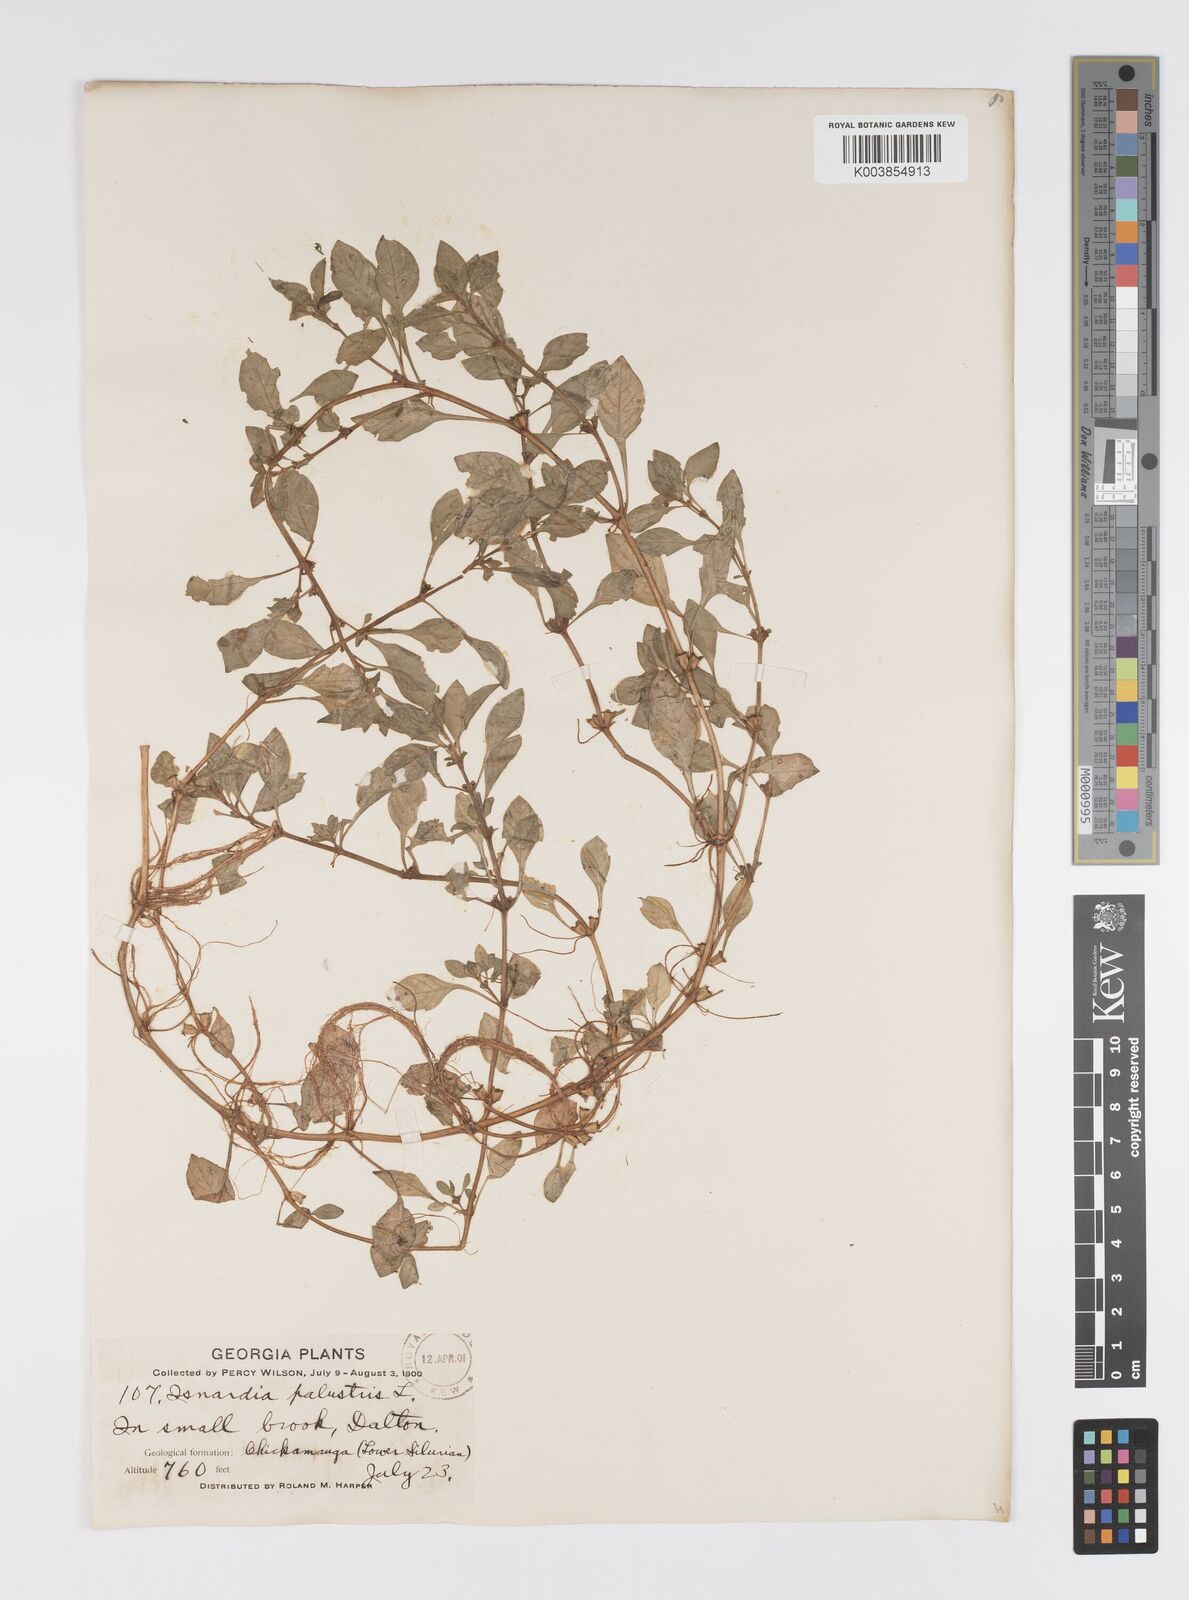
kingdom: Plantae
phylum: Tracheophyta
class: Magnoliopsida
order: Myrtales
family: Onagraceae
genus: Ludwigia
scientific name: Ludwigia palustris
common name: Hampshire-purslane
